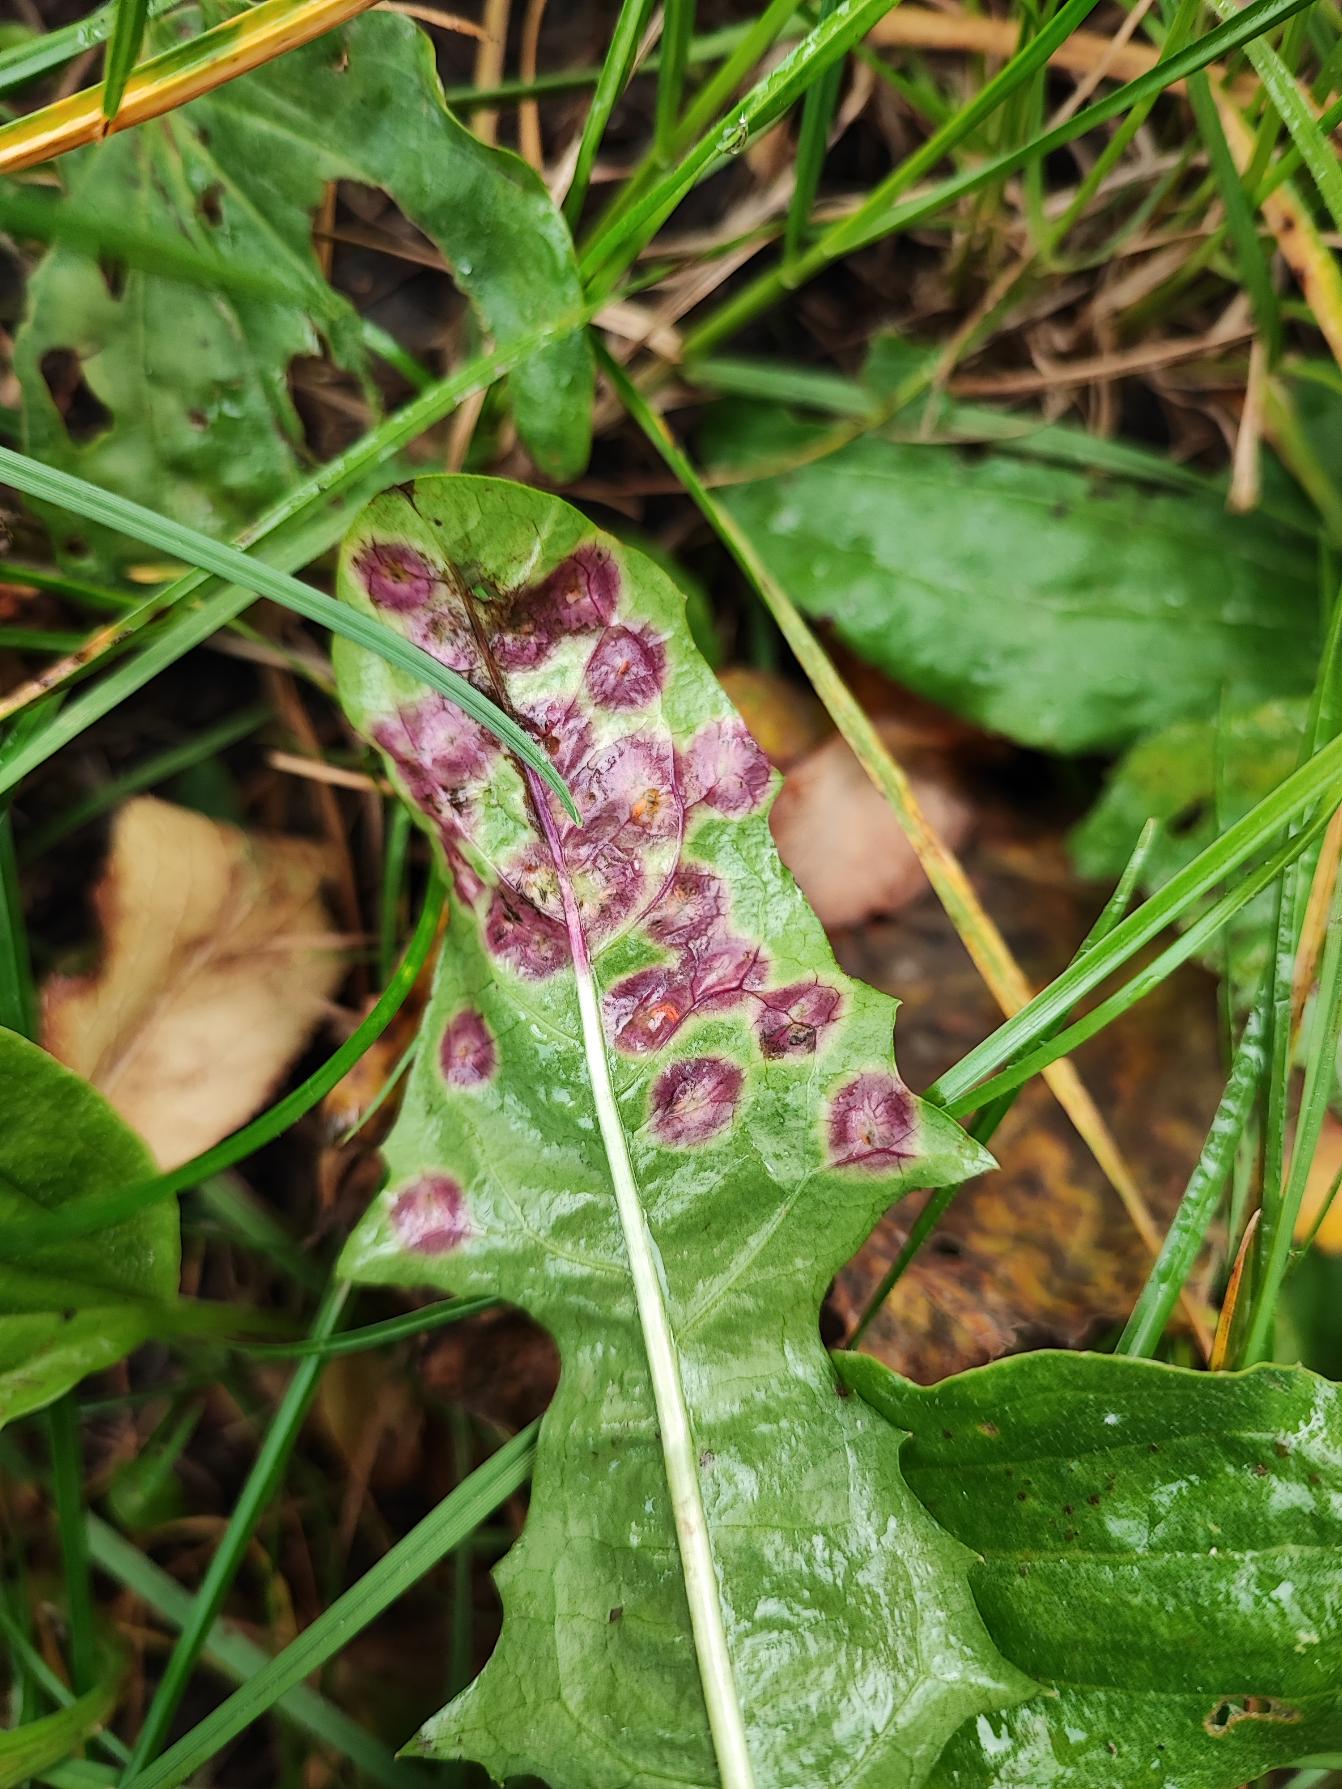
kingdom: Animalia
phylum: Arthropoda
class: Insecta
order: Diptera
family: Cecidomyiidae
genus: Cystiphora
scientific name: Cystiphora taraxaci
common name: Mælkebøttegalmyg
